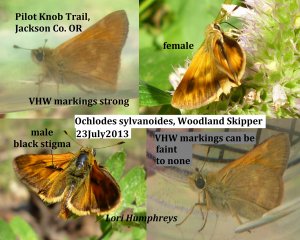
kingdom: Animalia
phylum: Arthropoda
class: Insecta
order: Lepidoptera
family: Hesperiidae
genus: Ochlodes
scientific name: Ochlodes sylvanoides
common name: Woodland Skipper
